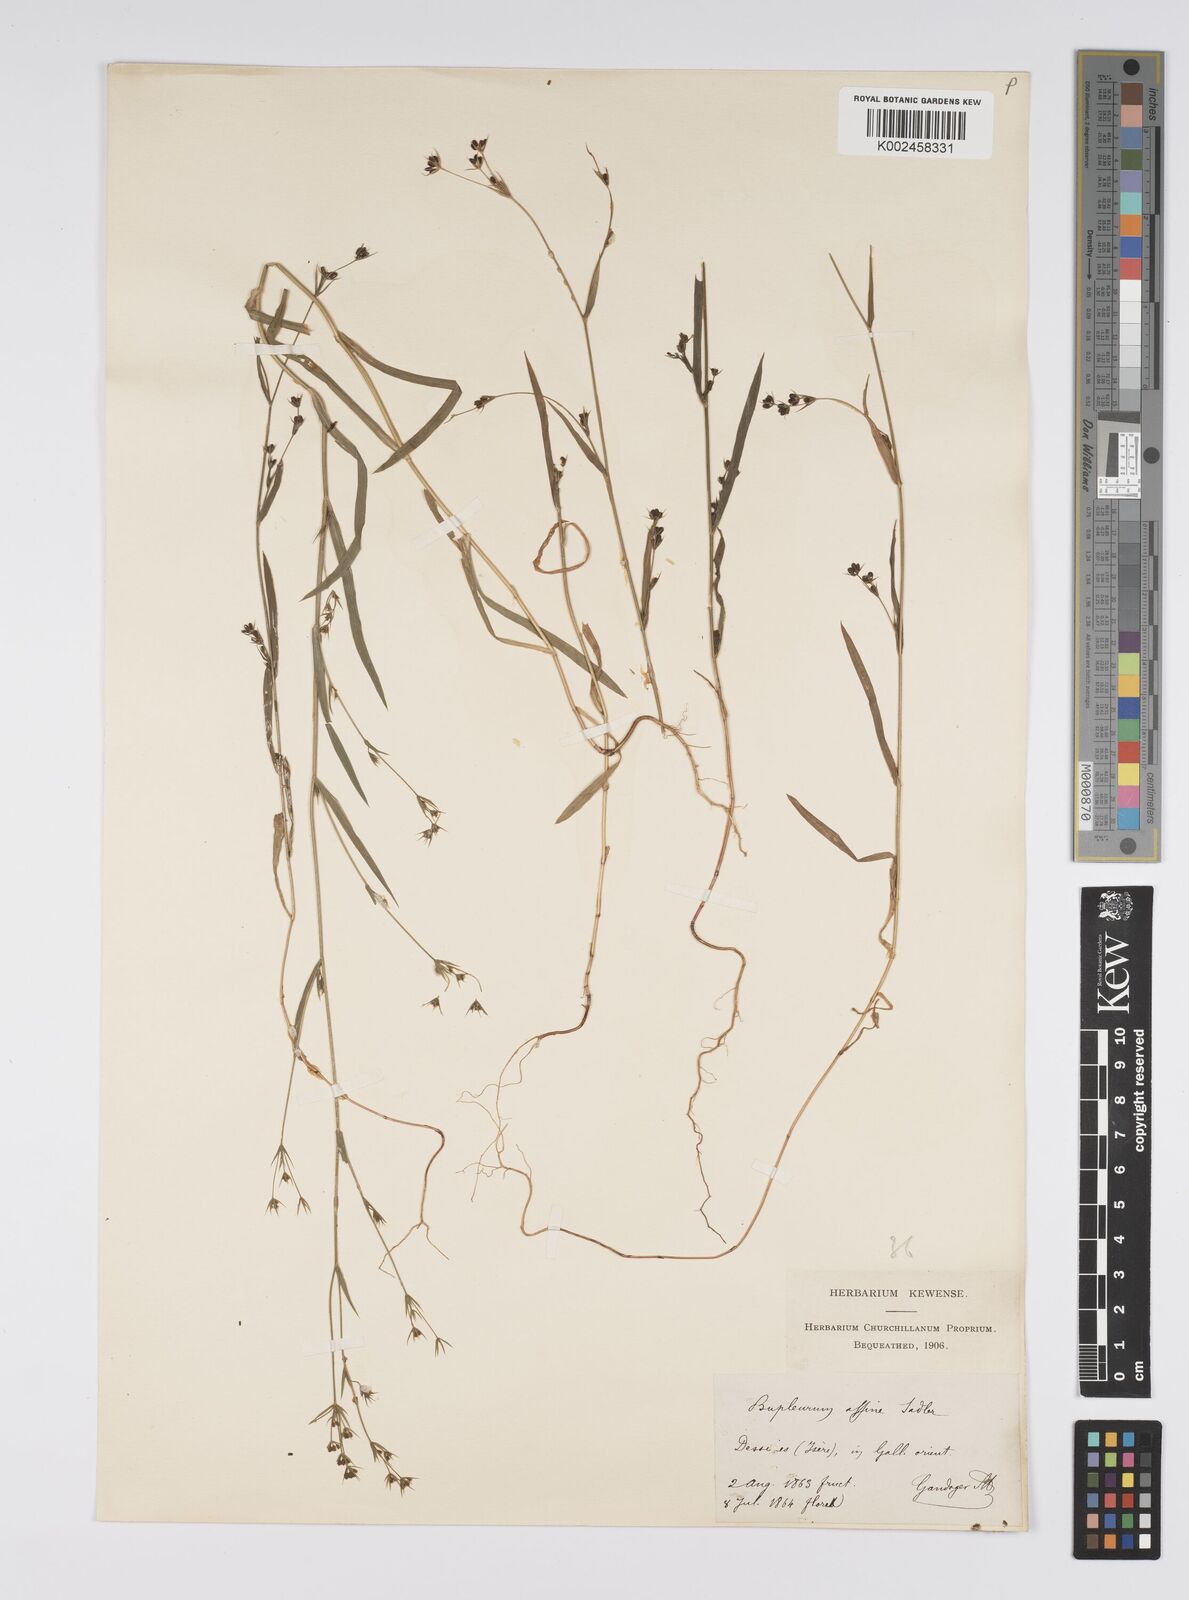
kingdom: Plantae
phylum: Tracheophyta
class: Magnoliopsida
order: Apiales
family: Apiaceae
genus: Bupleurum
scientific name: Bupleurum gerardi
